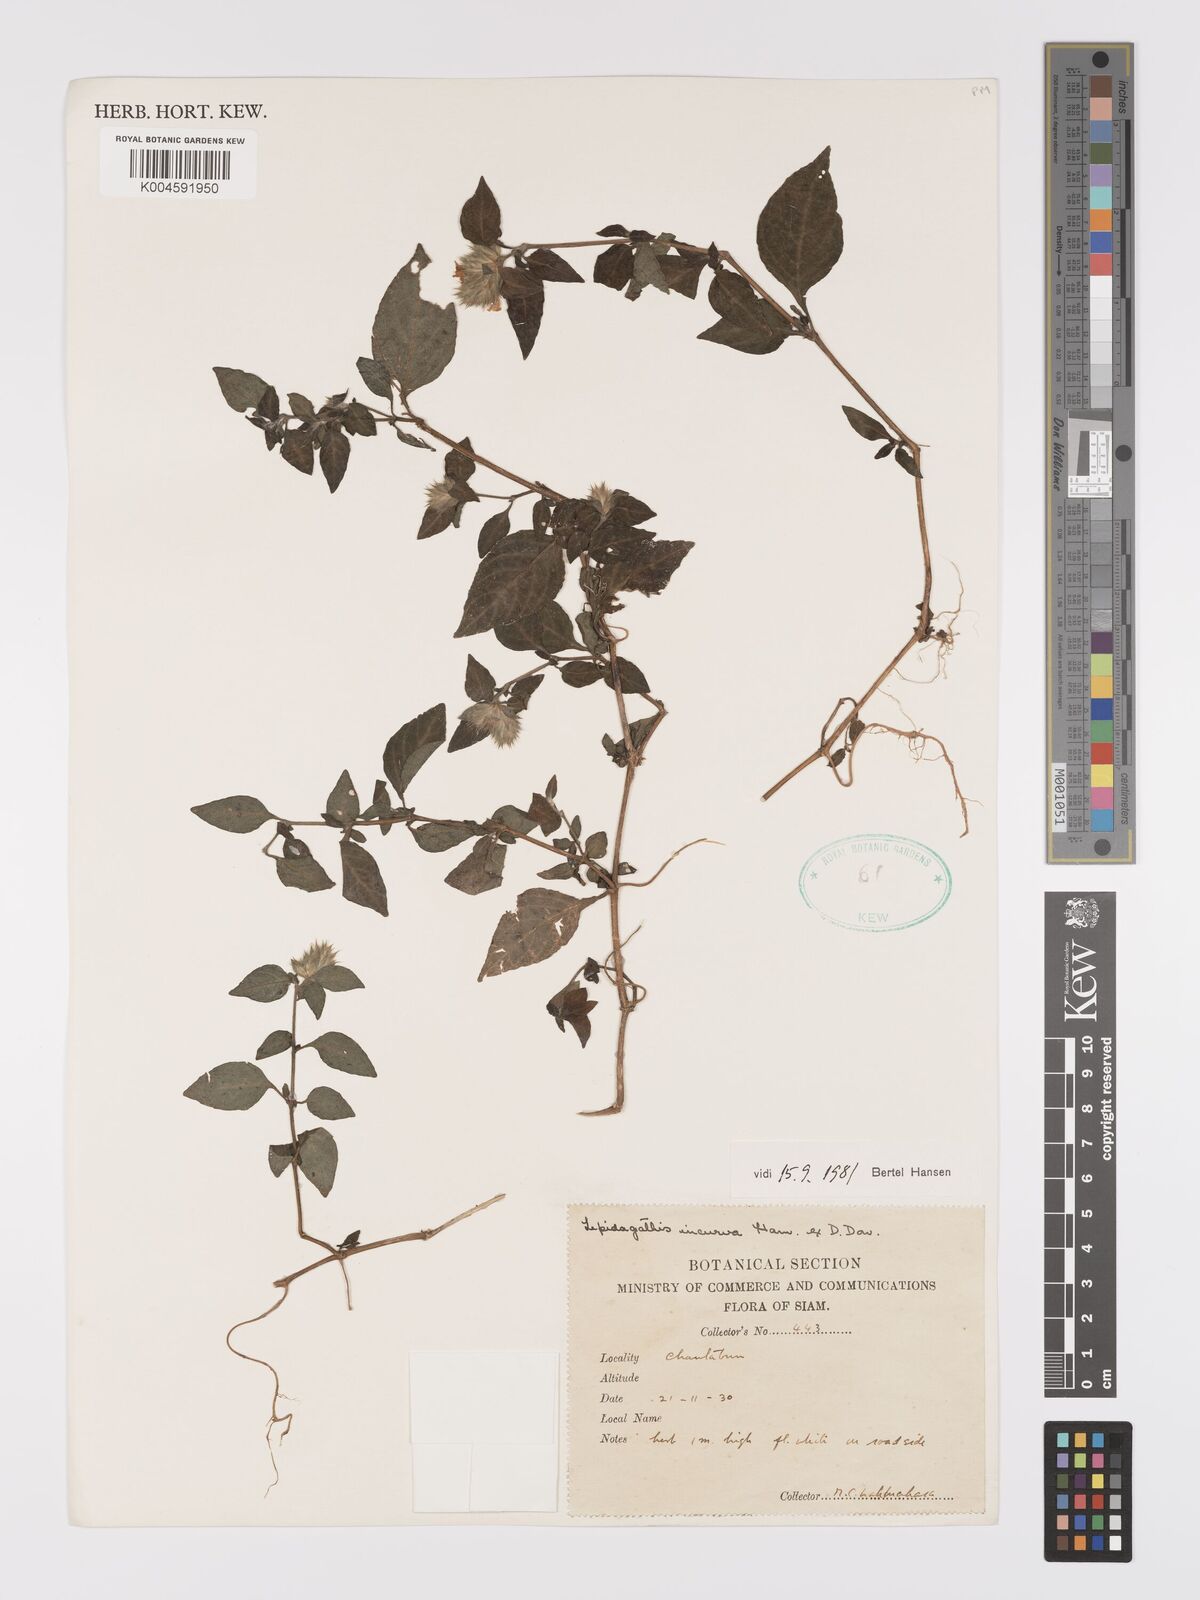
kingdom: Plantae
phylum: Tracheophyta
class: Magnoliopsida
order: Lamiales
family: Acanthaceae
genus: Lepidagathis
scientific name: Lepidagathis incurva
